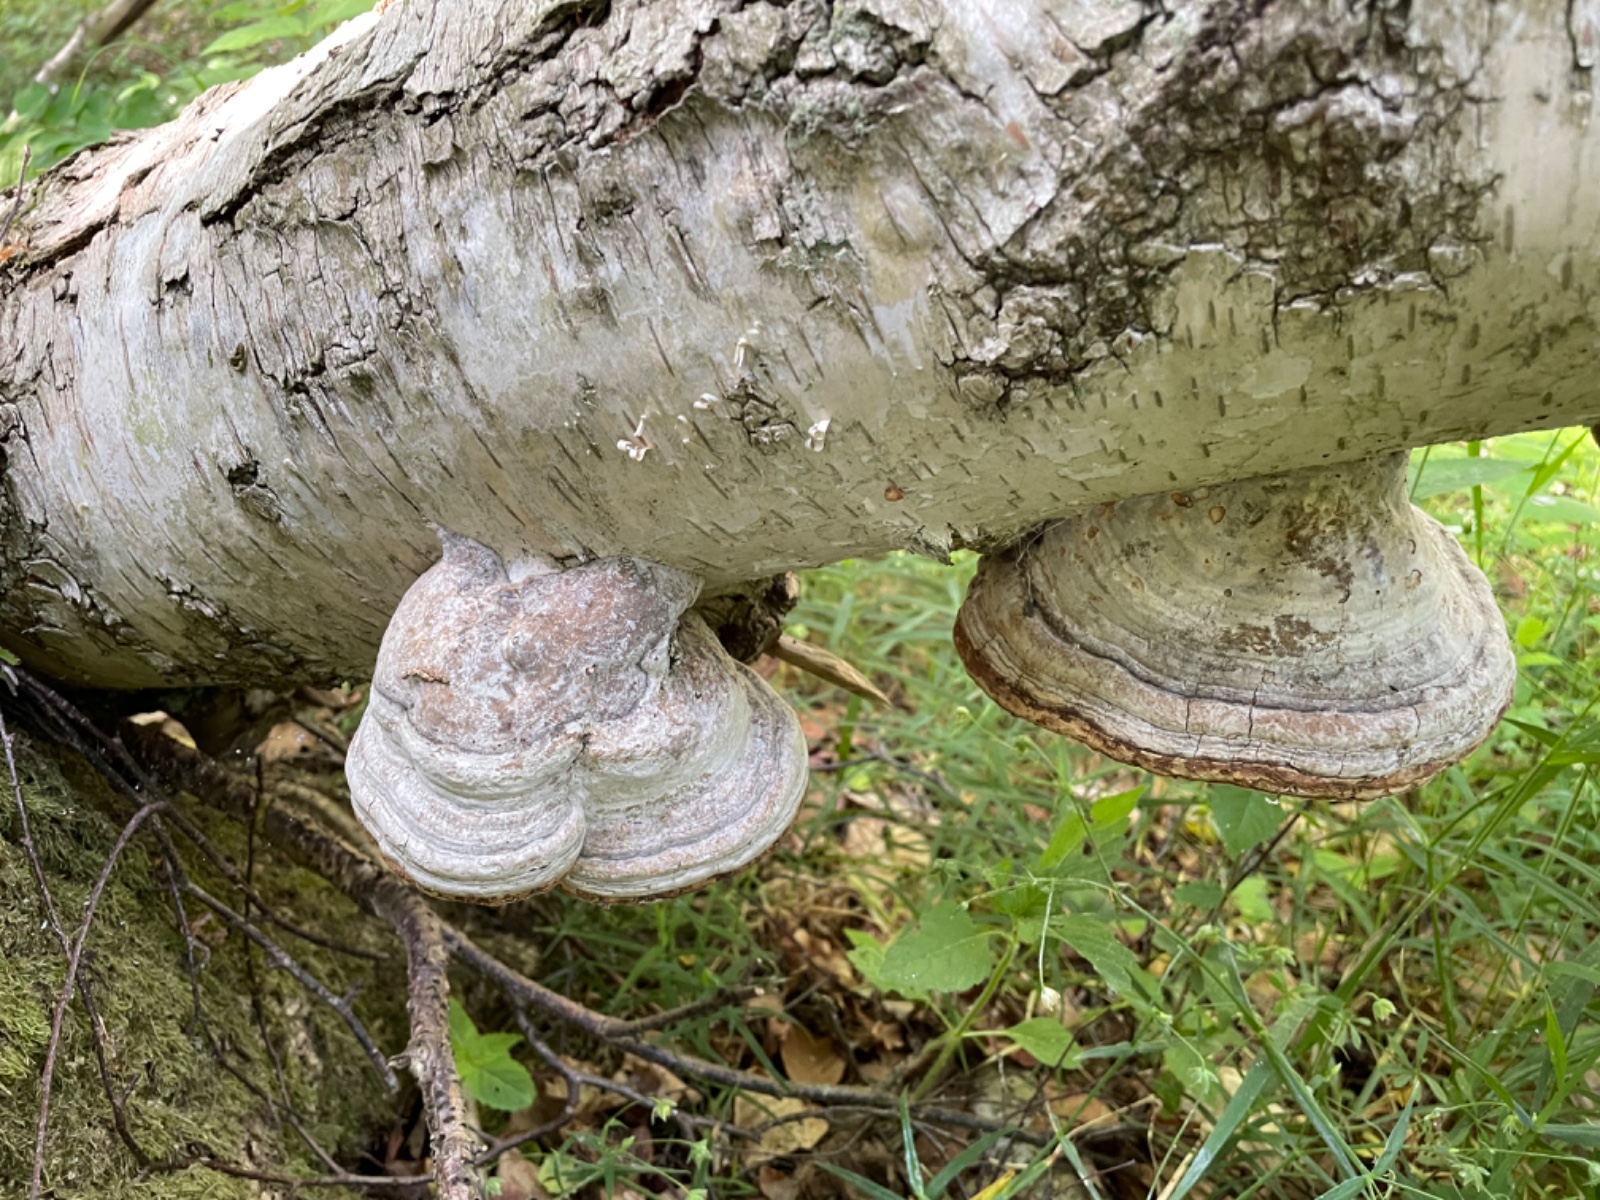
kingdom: Fungi
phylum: Basidiomycota
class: Agaricomycetes
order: Polyporales
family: Polyporaceae
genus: Fomes
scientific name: Fomes fomentarius
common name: tøndersvamp
